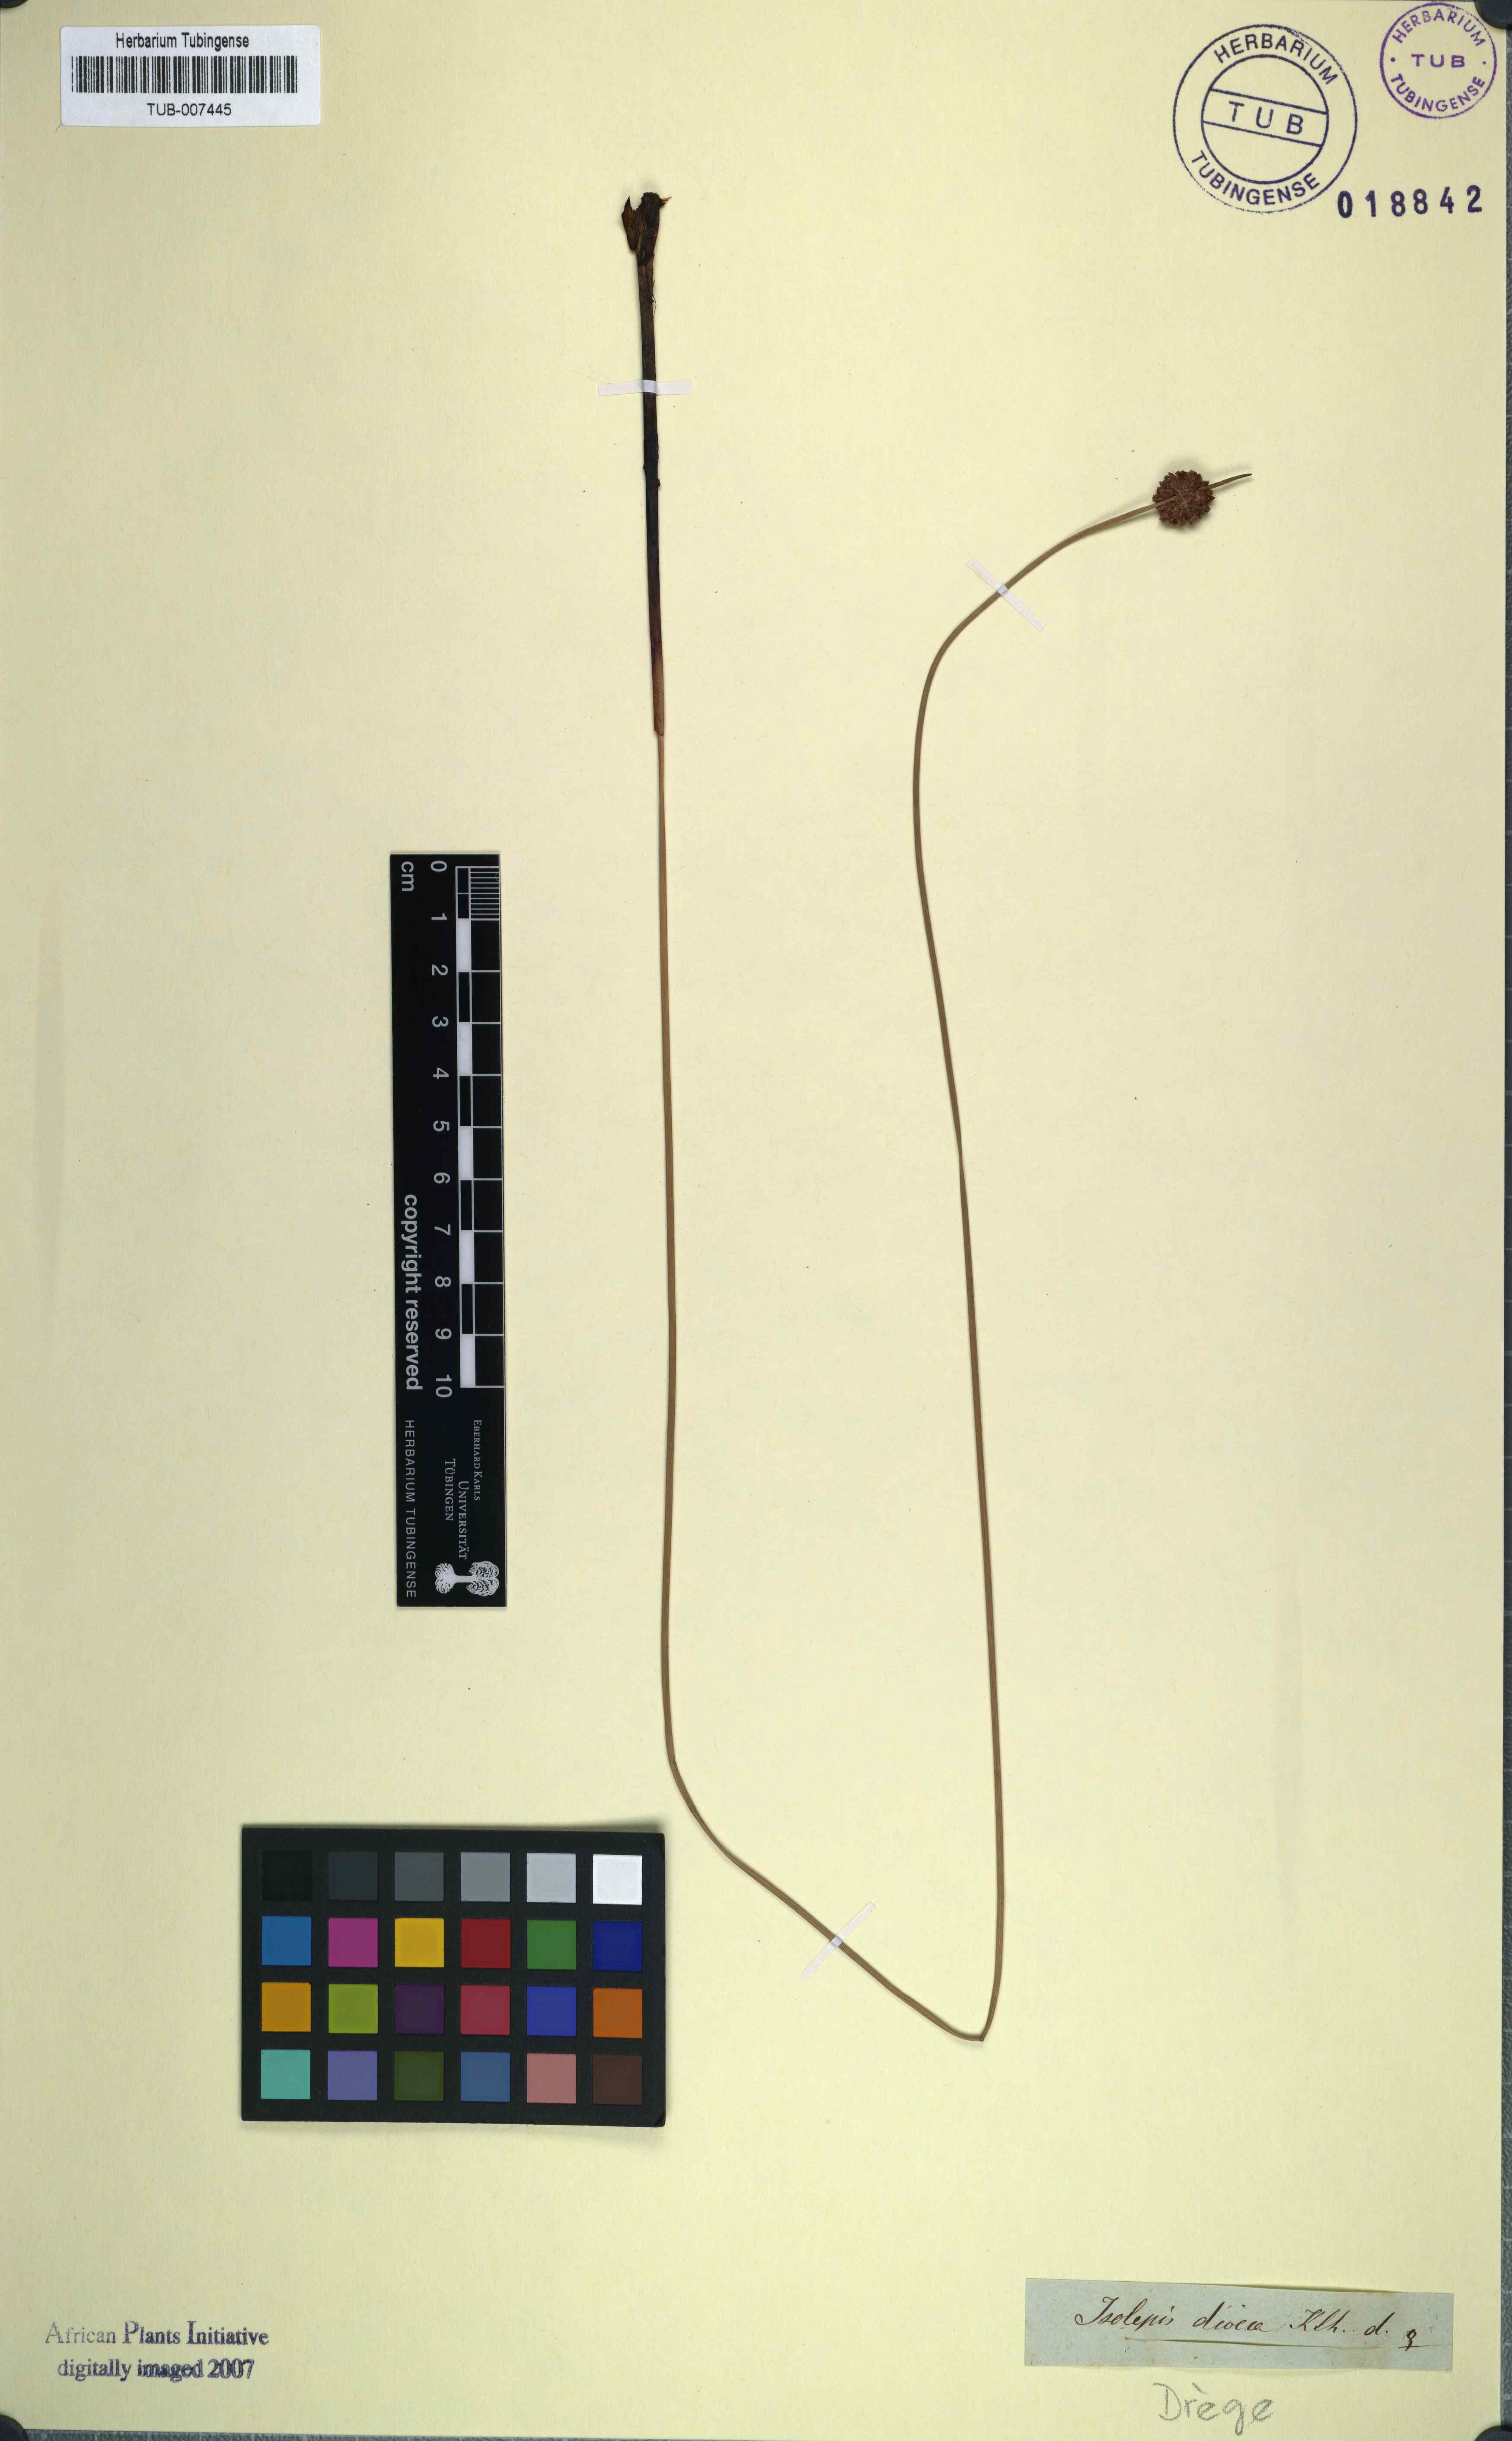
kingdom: Plantae
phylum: Tracheophyta
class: Liliopsida
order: Poales
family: Cyperaceae
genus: Afroscirpoides
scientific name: Afroscirpoides dioeca
